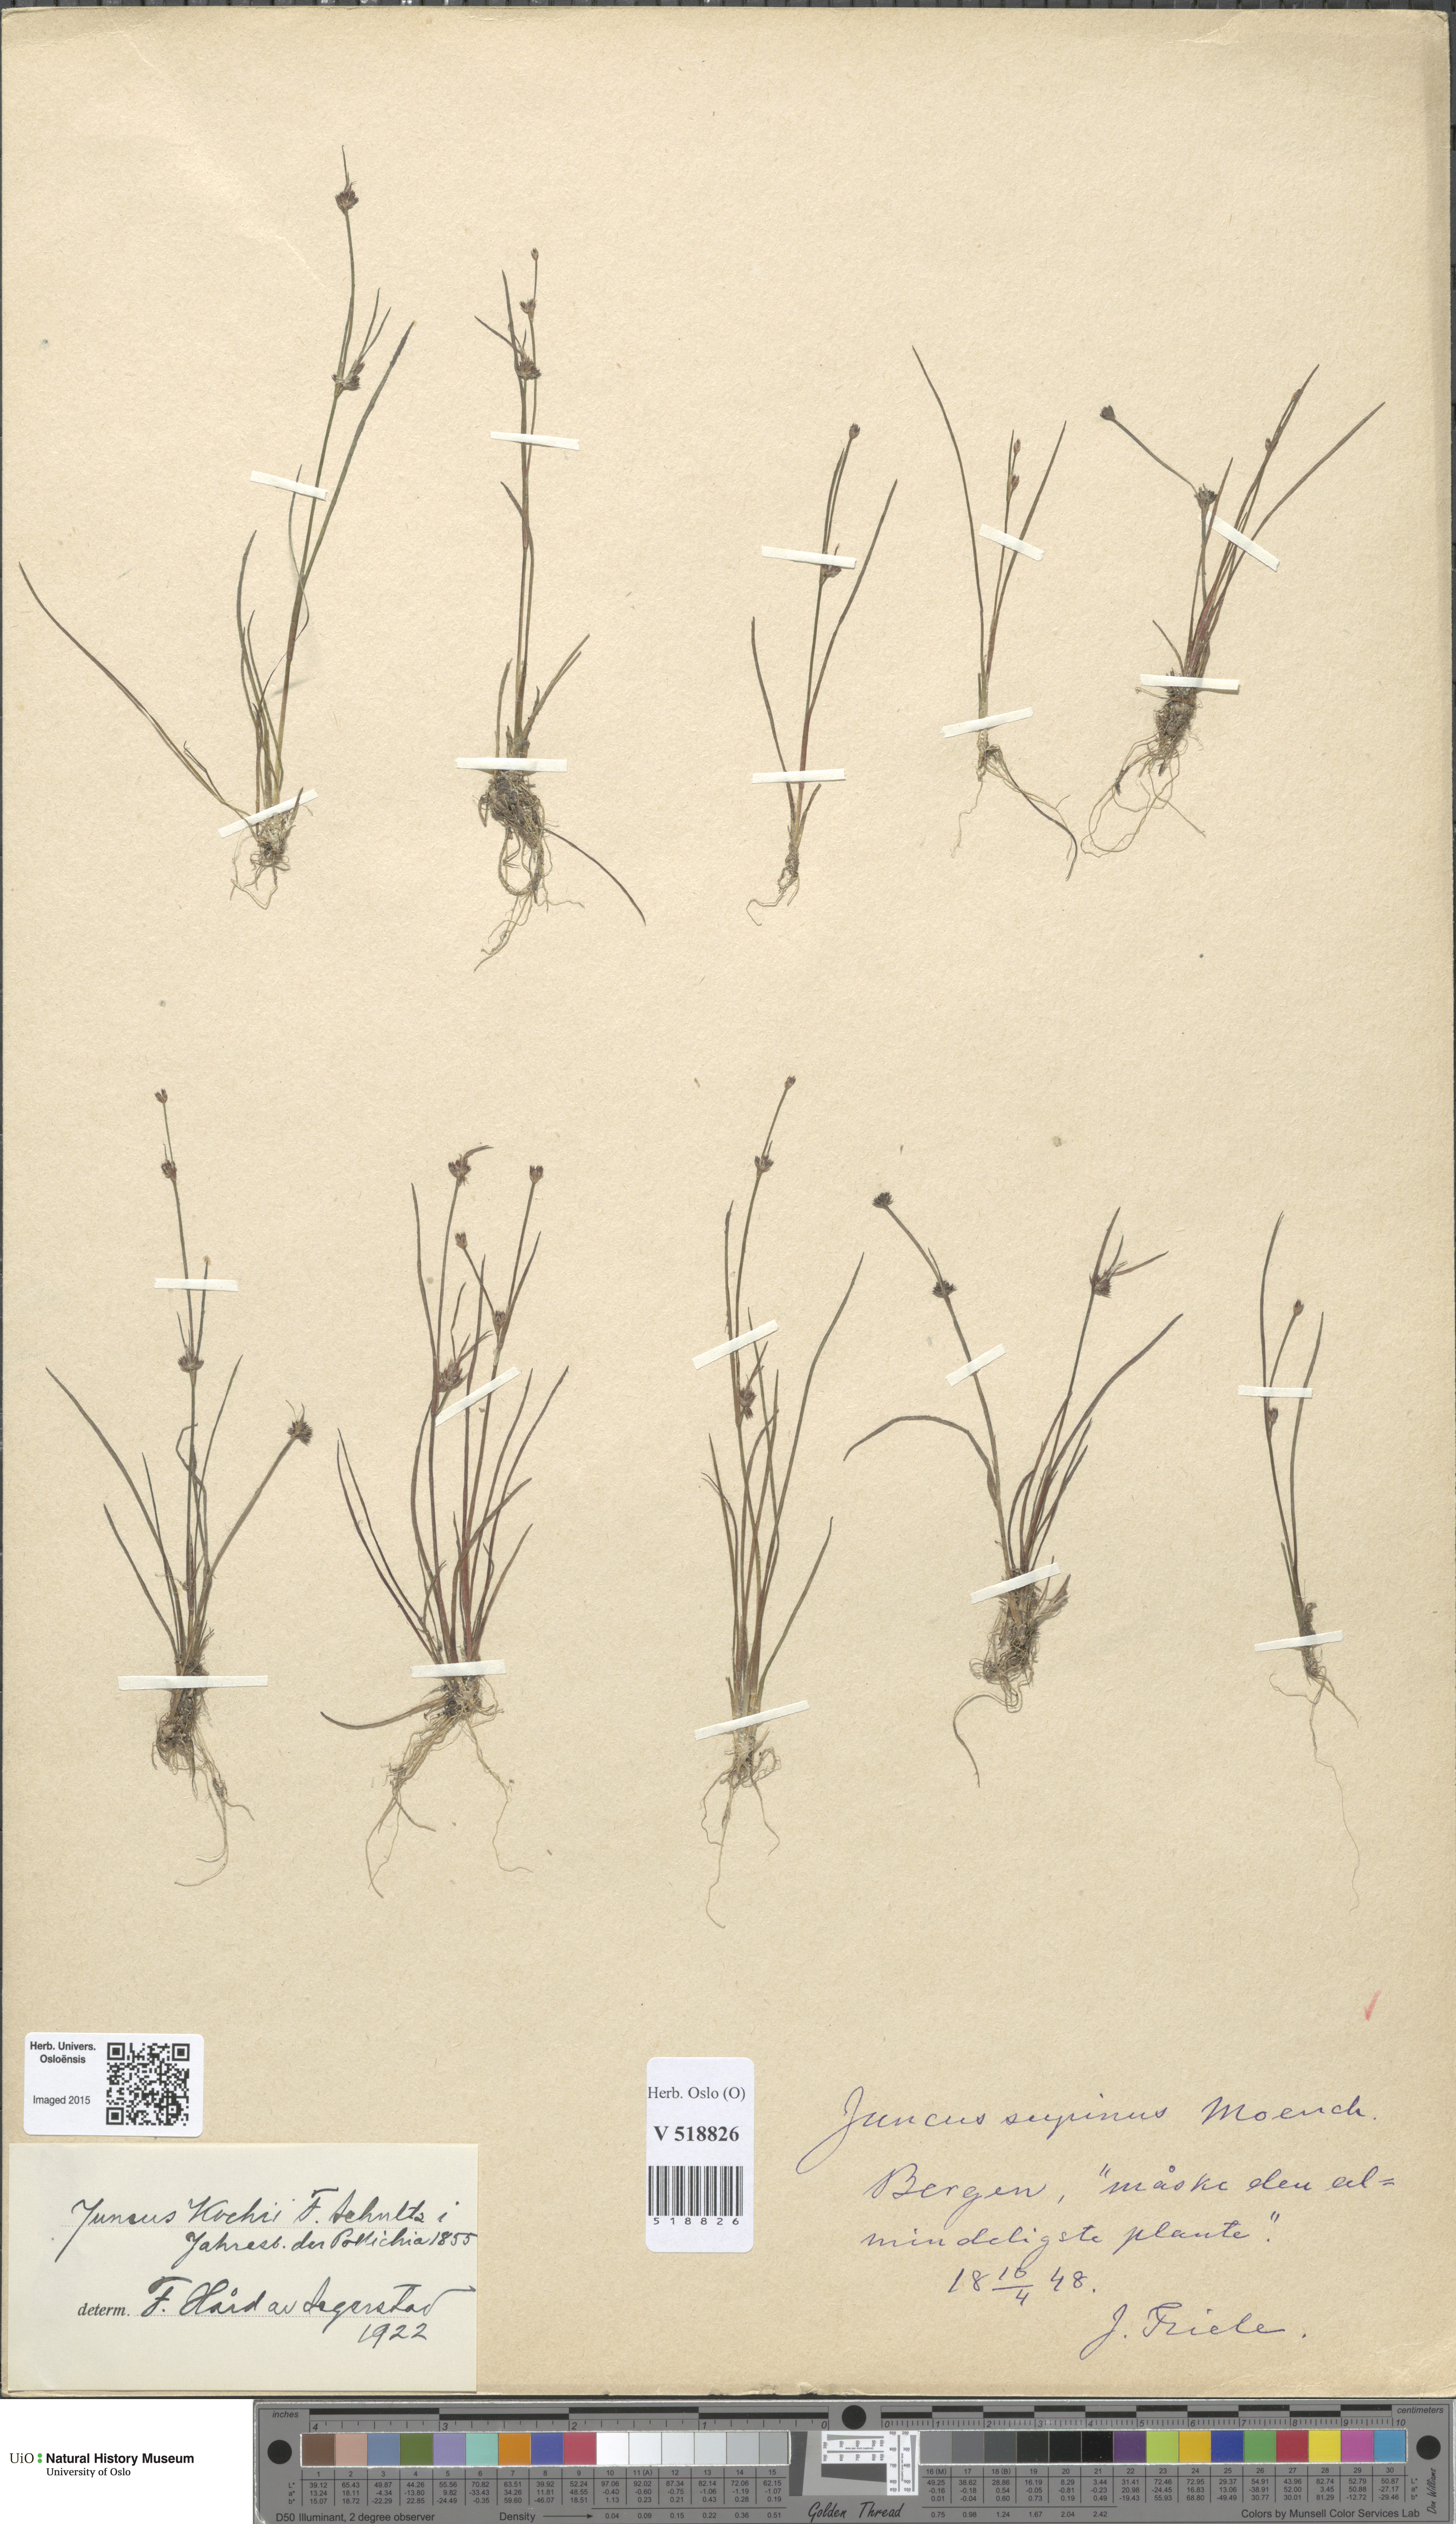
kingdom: Plantae
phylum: Tracheophyta
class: Liliopsida
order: Poales
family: Juncaceae
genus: Juncus
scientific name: Juncus bulbosus
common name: Bulbous rush
